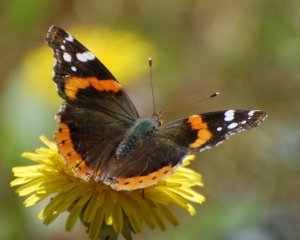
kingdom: Animalia
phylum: Arthropoda
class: Insecta
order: Lepidoptera
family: Nymphalidae
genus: Vanessa
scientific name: Vanessa atalanta
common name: Red Admiral
